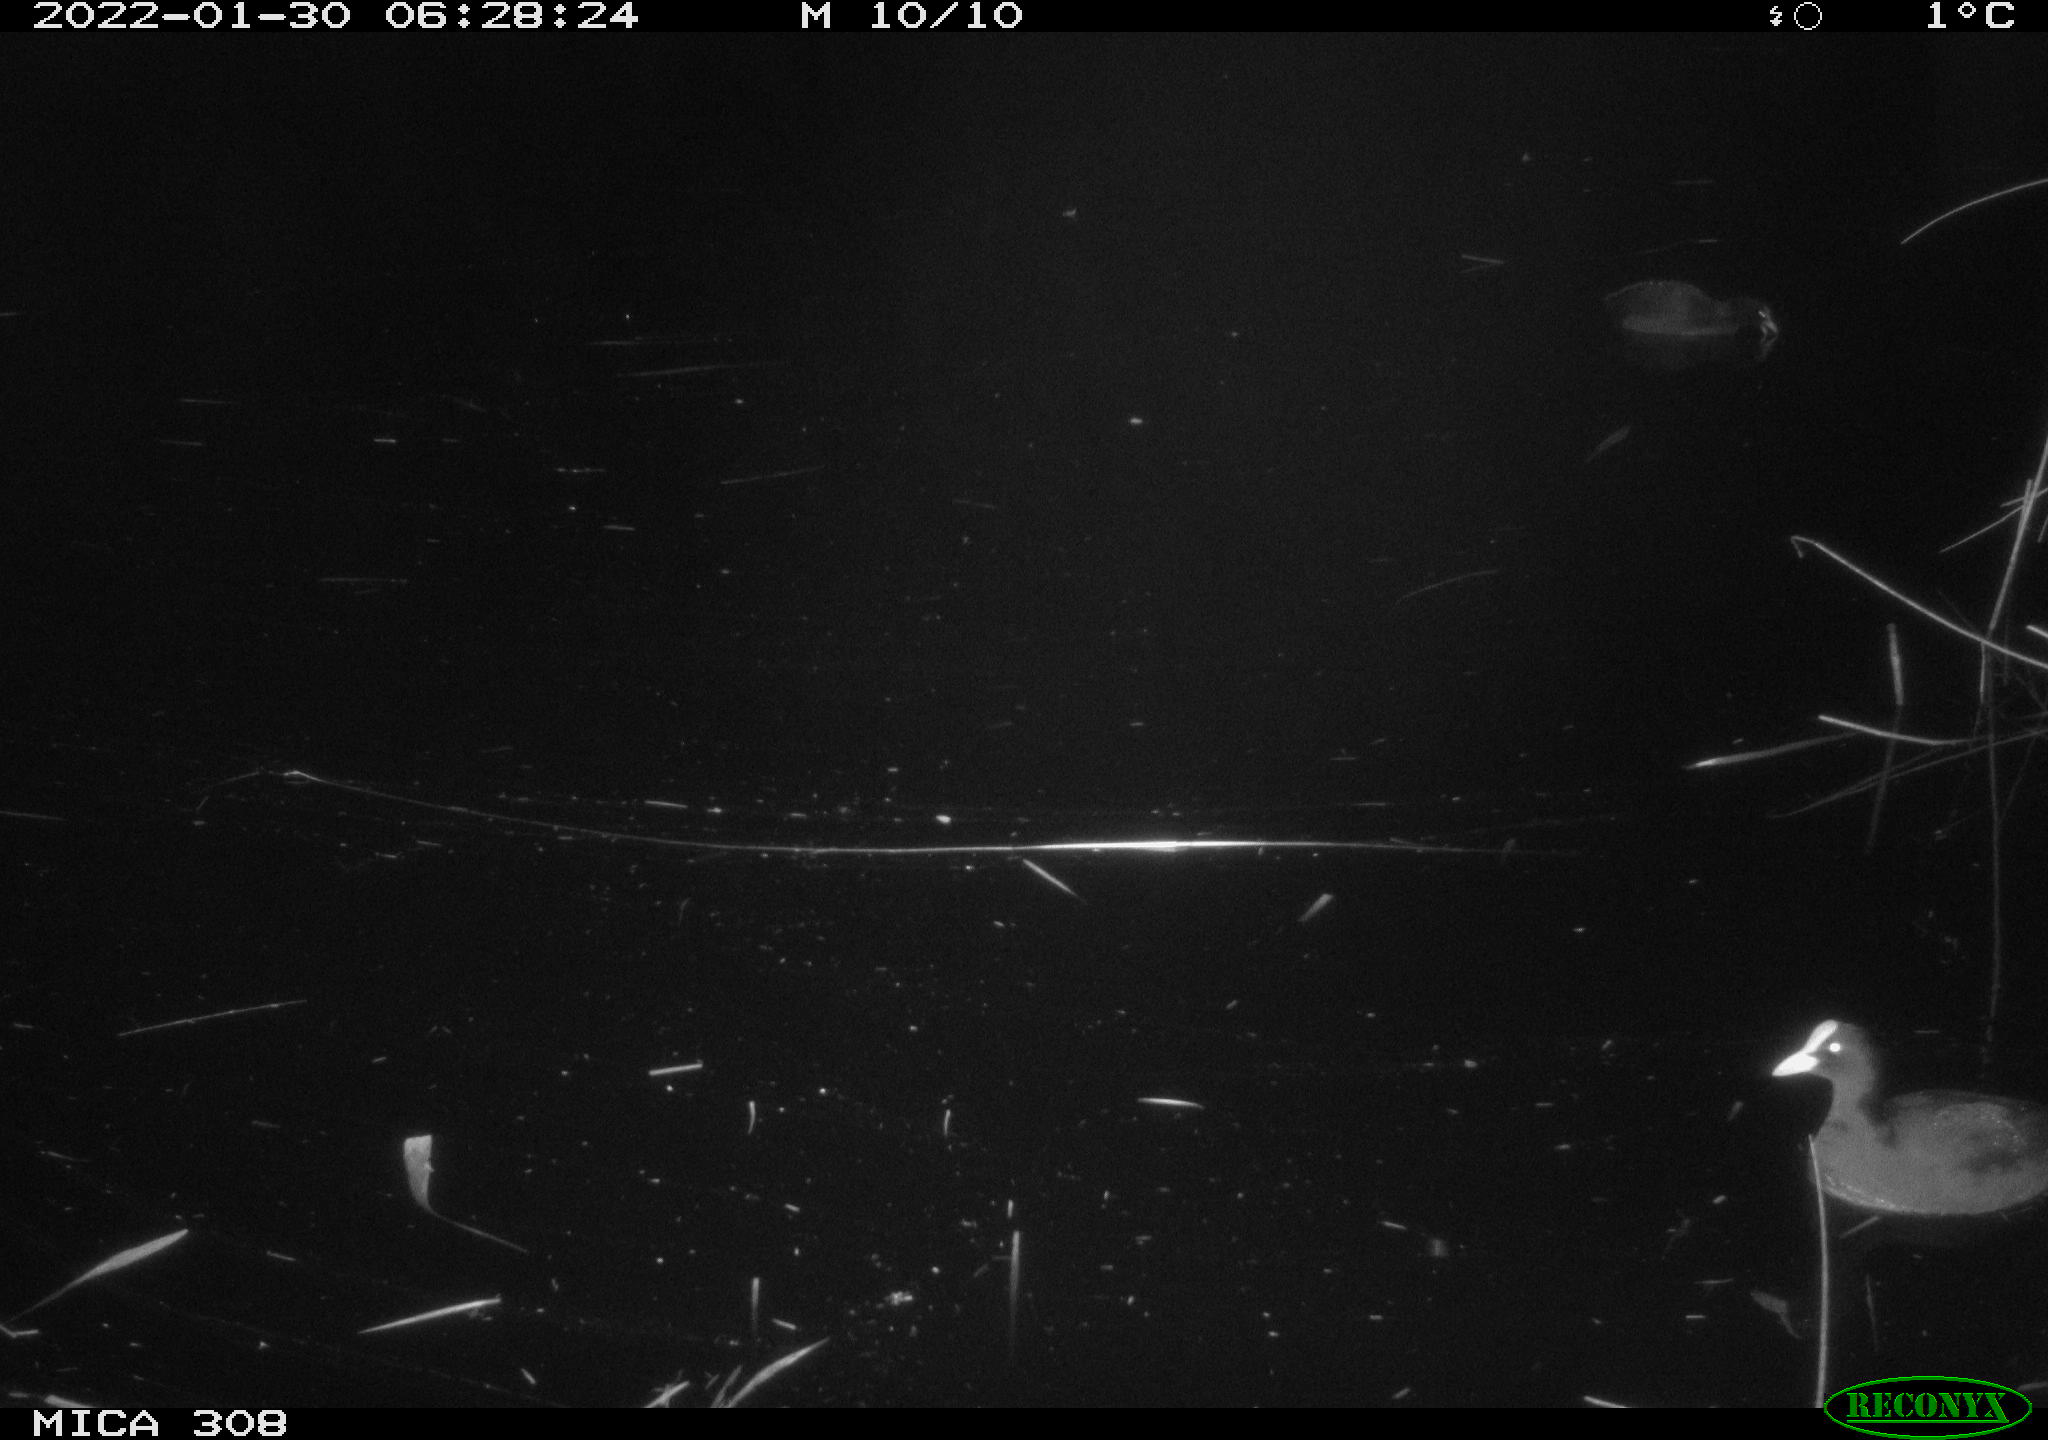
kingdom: Animalia
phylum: Chordata
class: Aves
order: Anseriformes
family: Anatidae
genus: Anas
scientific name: Anas
